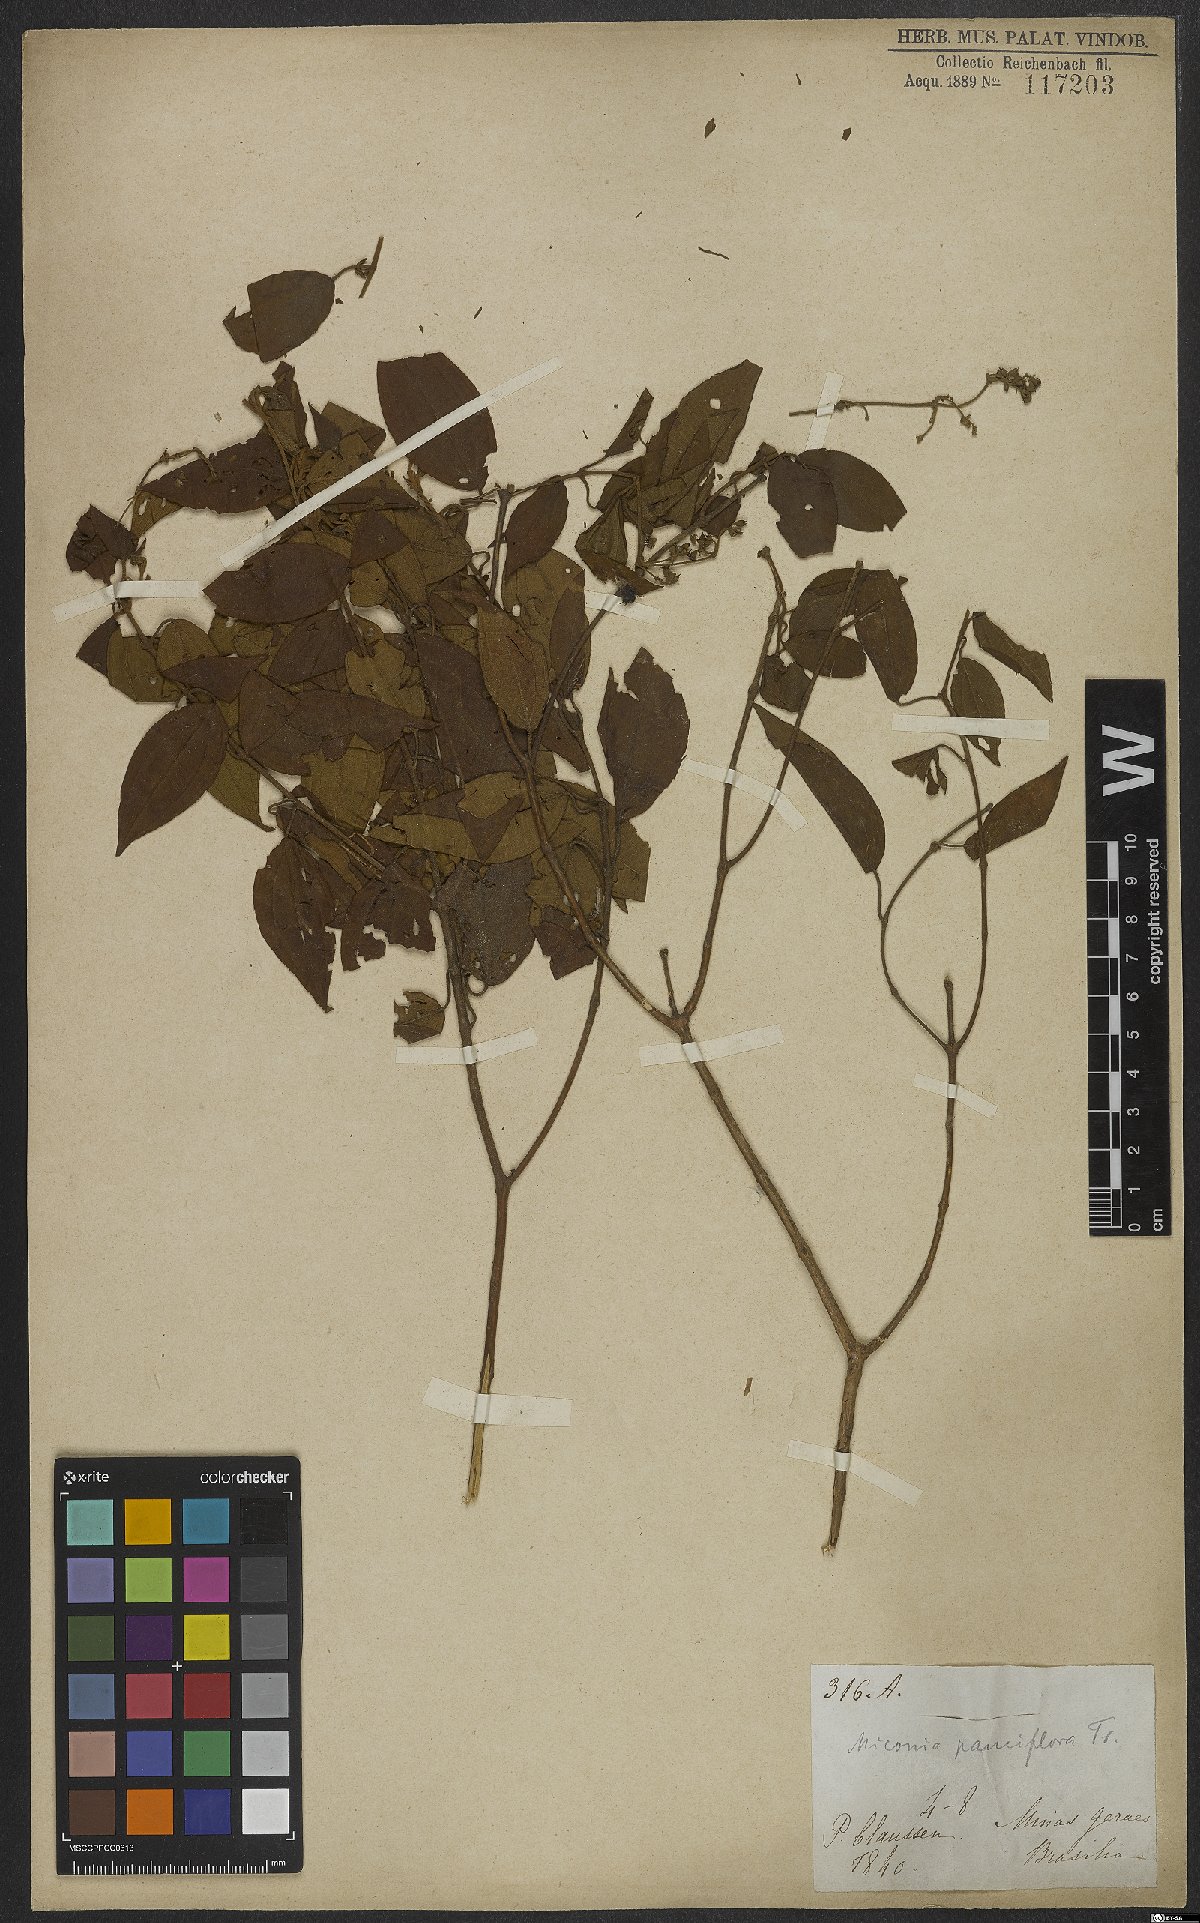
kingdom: Plantae
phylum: Tracheophyta
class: Magnoliopsida
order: Myrtales
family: Melastomataceae
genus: Miconia
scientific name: Miconia brasiliensis
